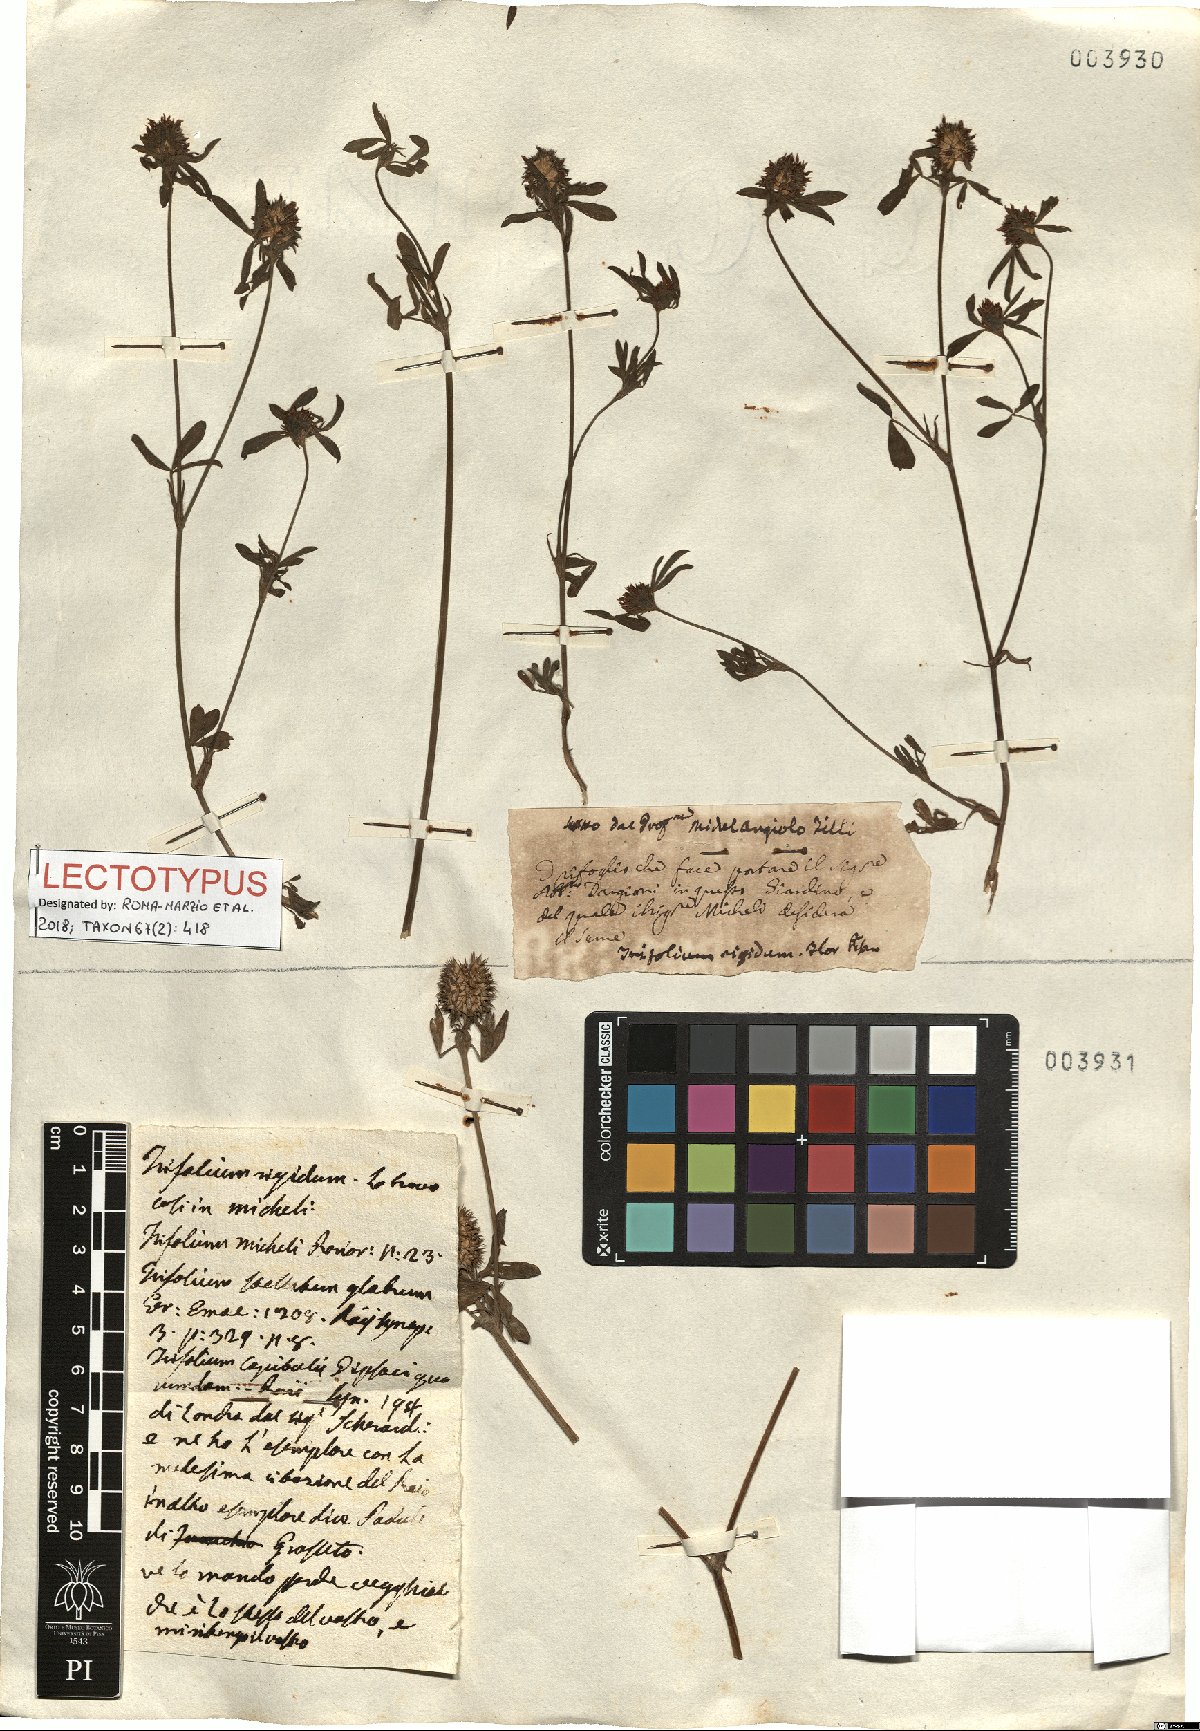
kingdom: Plantae
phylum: Tracheophyta
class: Magnoliopsida
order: Fabales
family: Fabaceae
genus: Trifolium
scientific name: Trifolium squamosum
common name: Sea clover
